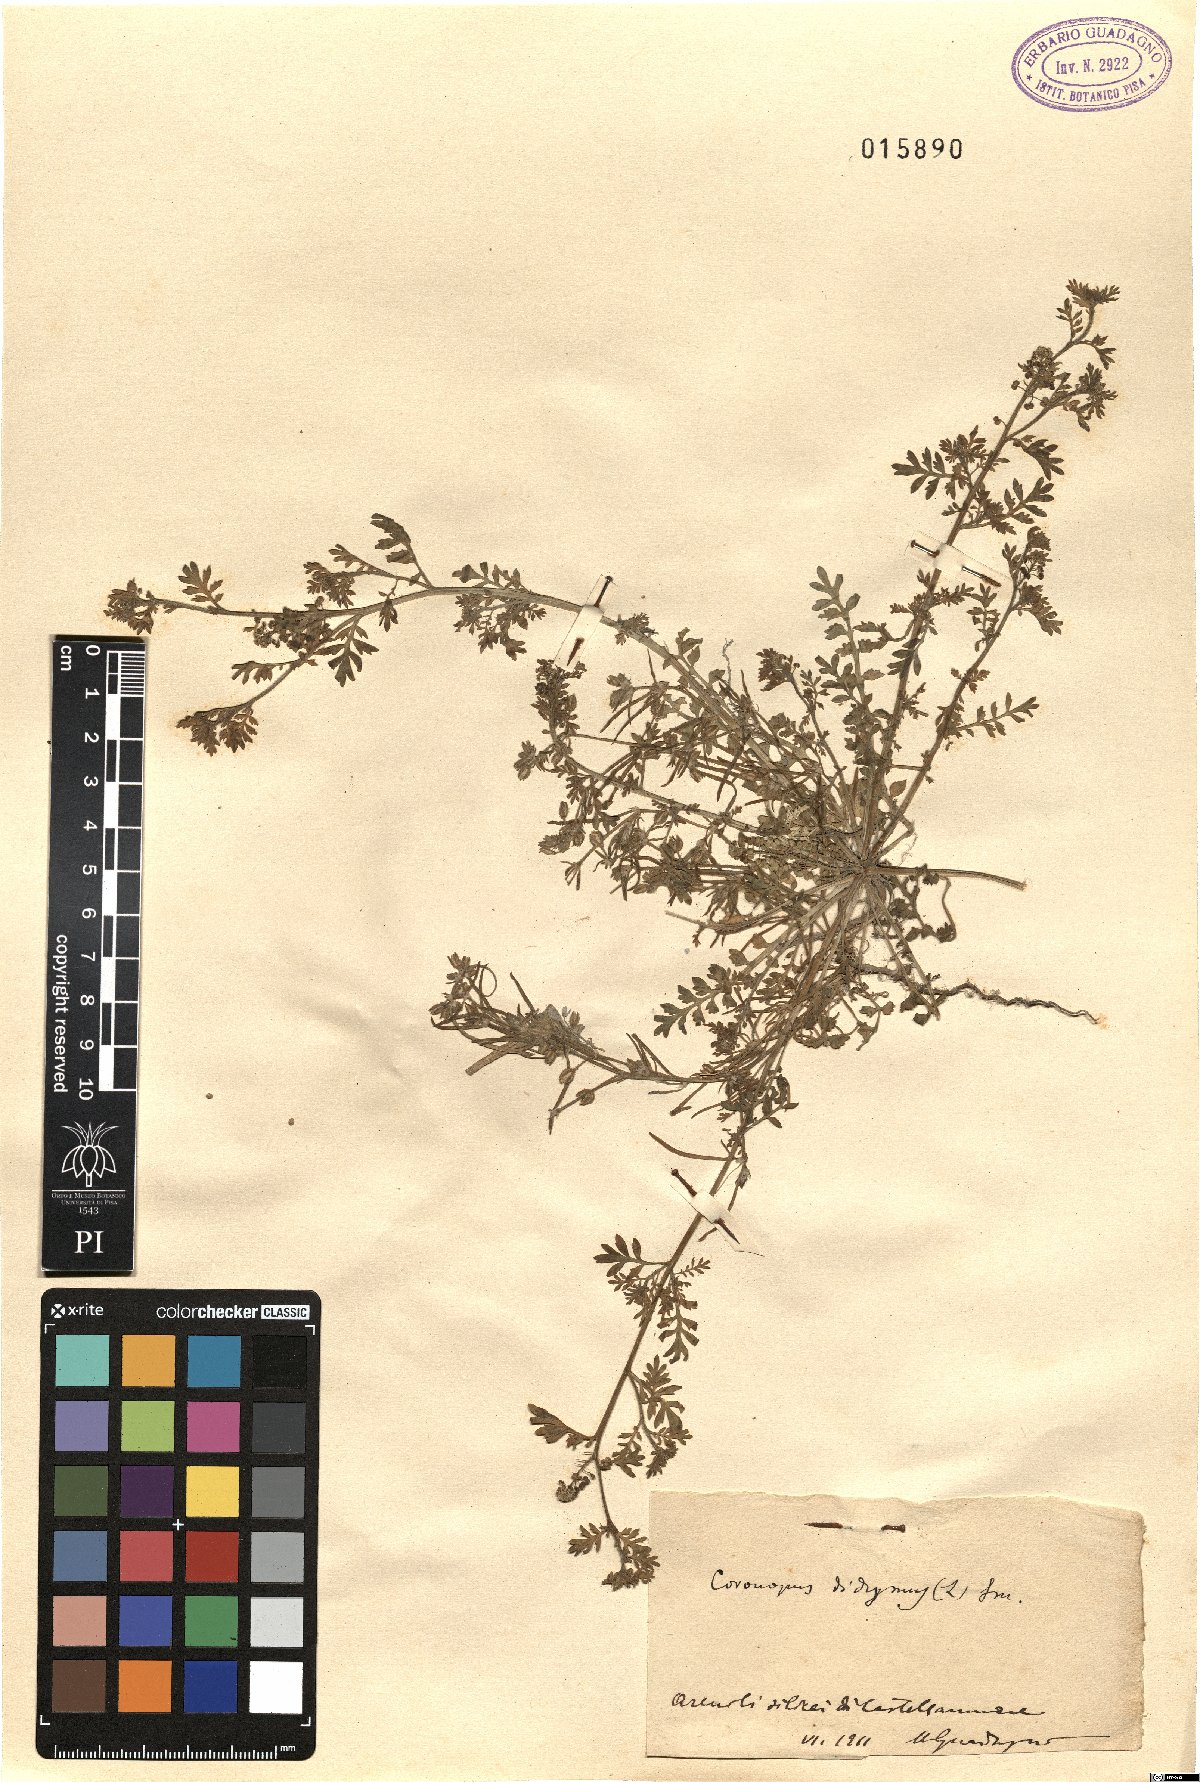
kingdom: Plantae
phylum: Tracheophyta
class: Magnoliopsida
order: Brassicales
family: Brassicaceae
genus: Lepidium
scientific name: Lepidium didymum
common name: Lesser swinecress
